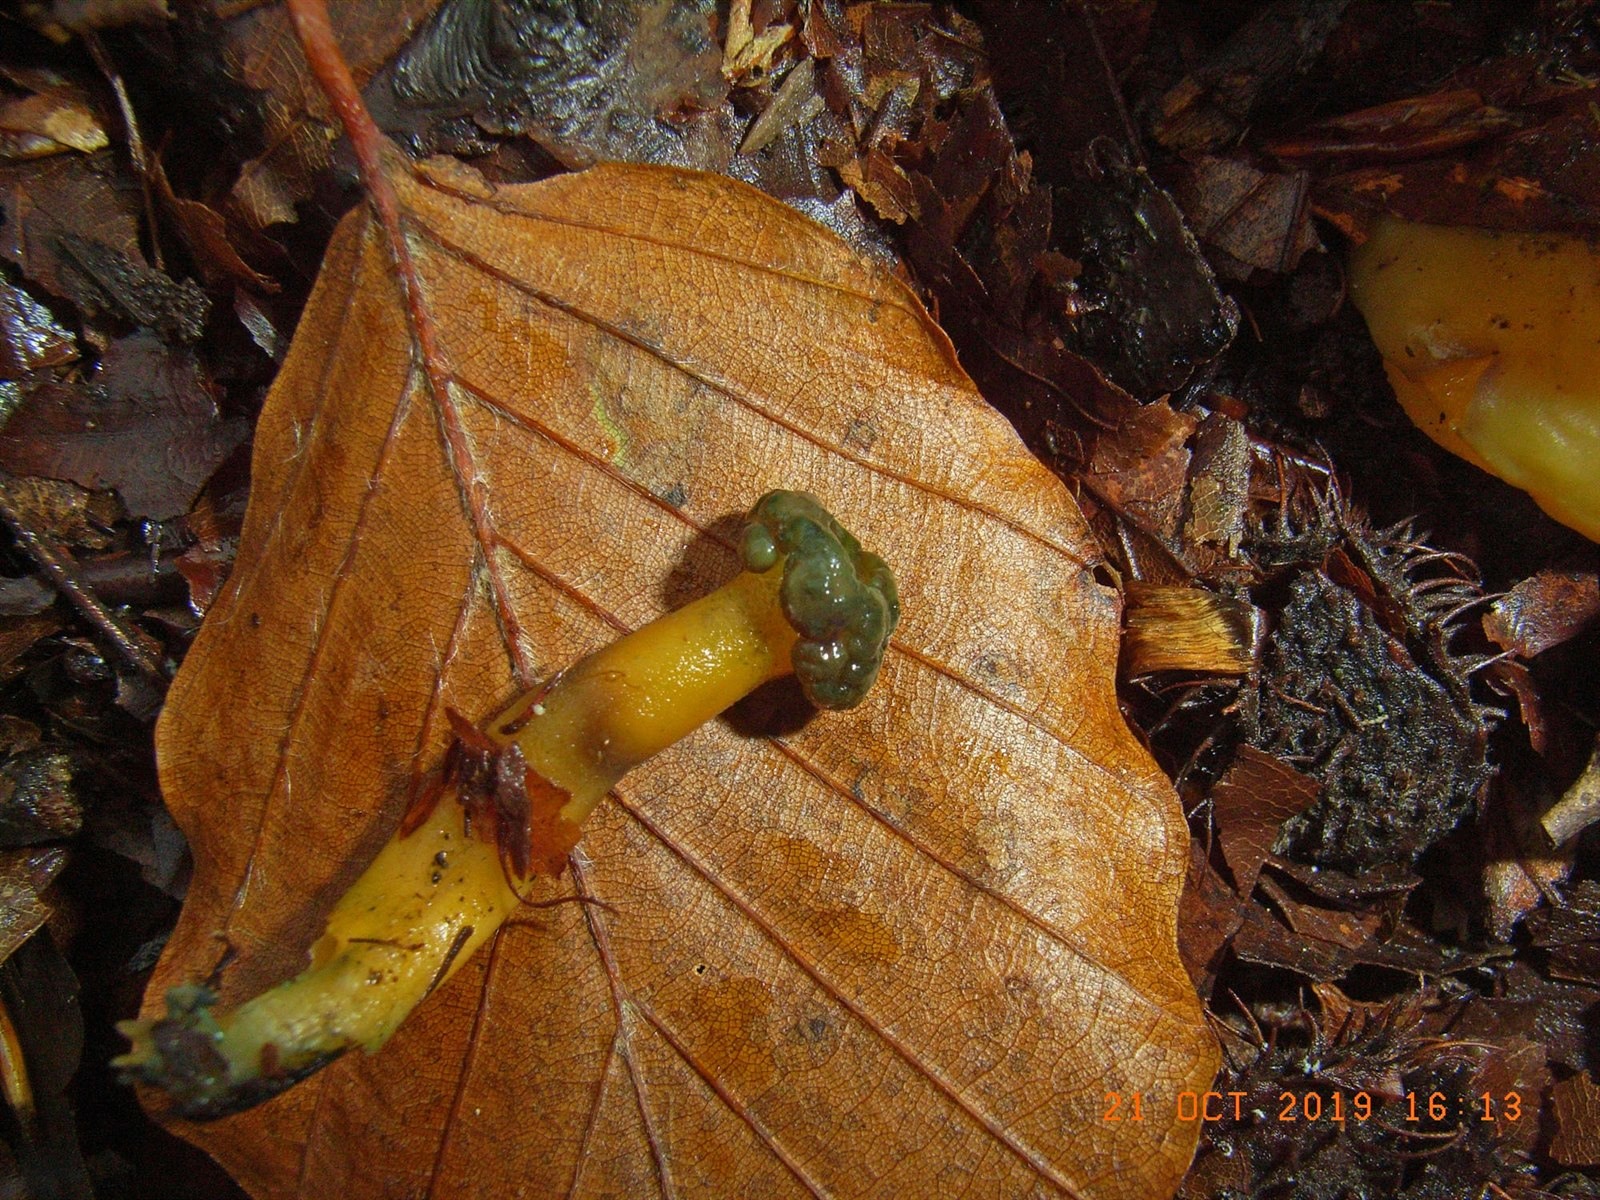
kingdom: Fungi
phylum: Ascomycota
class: Sordariomycetes
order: Hypocreales
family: Hypocreaceae
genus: Hypomyces
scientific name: Hypomyces leotiicola
